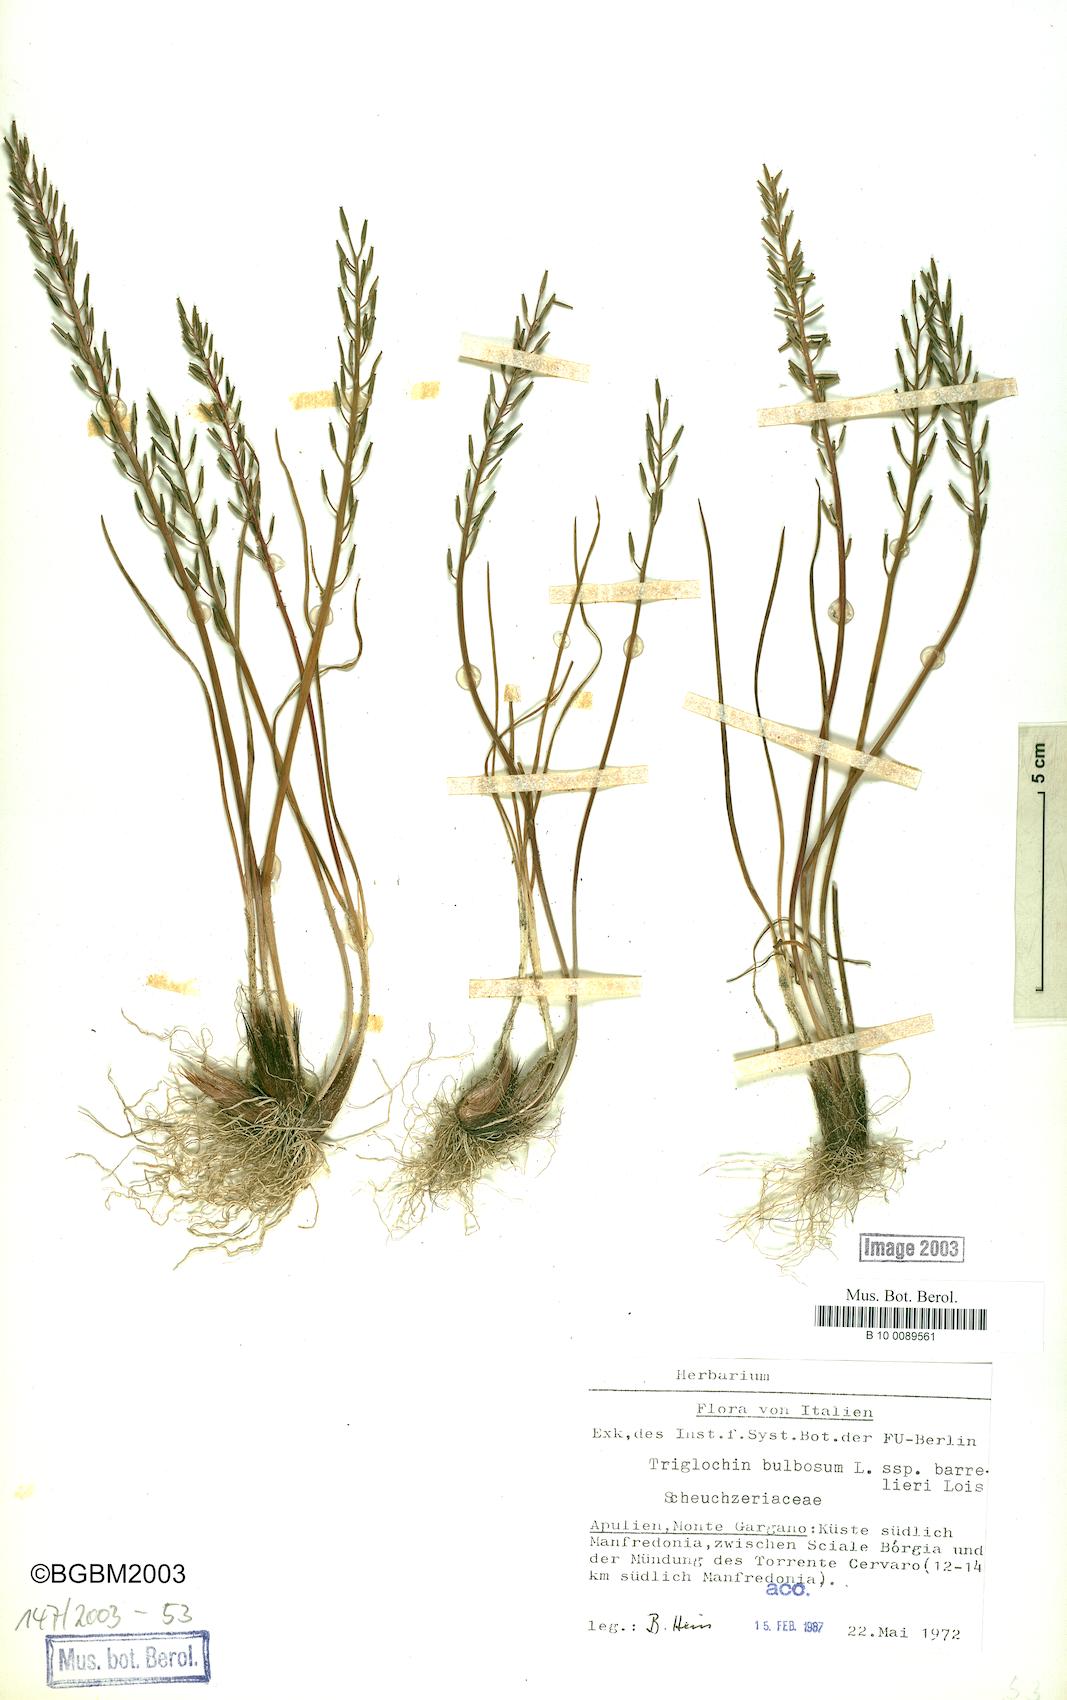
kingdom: Plantae
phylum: Tracheophyta
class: Liliopsida
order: Alismatales
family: Juncaginaceae
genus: Triglochin
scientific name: Triglochin barrelieri
